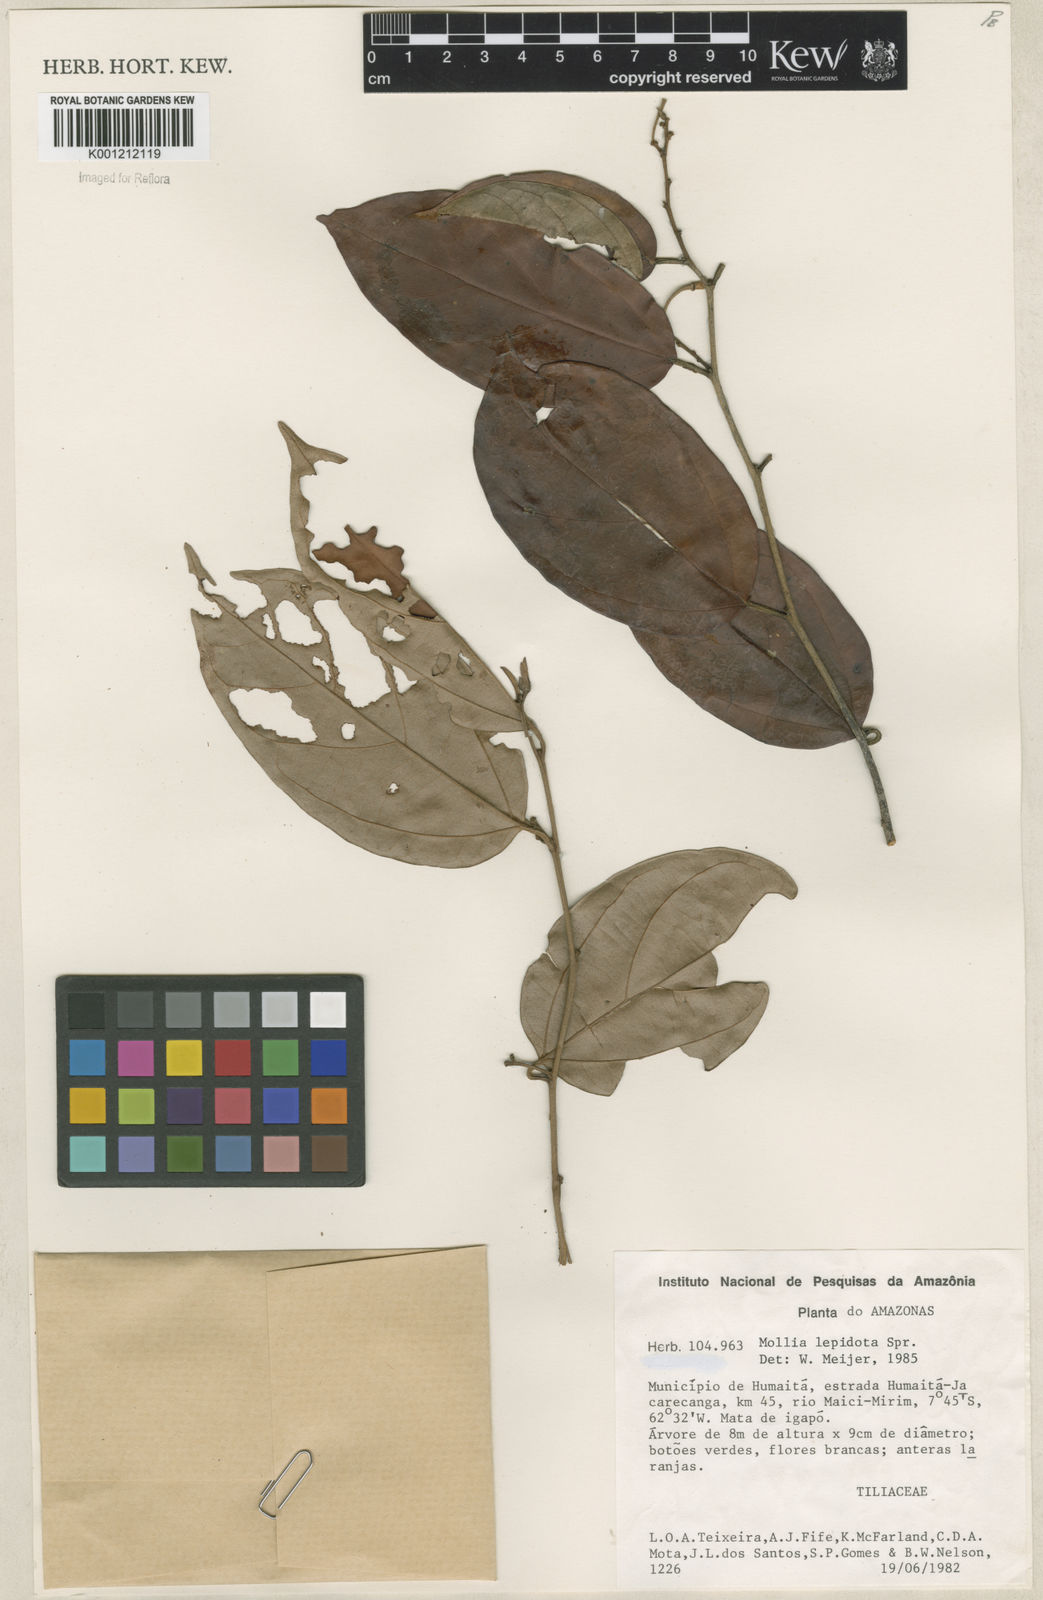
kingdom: Plantae
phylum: Tracheophyta
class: Magnoliopsida
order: Malvales
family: Malvaceae
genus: Mollia
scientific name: Mollia lepidota
